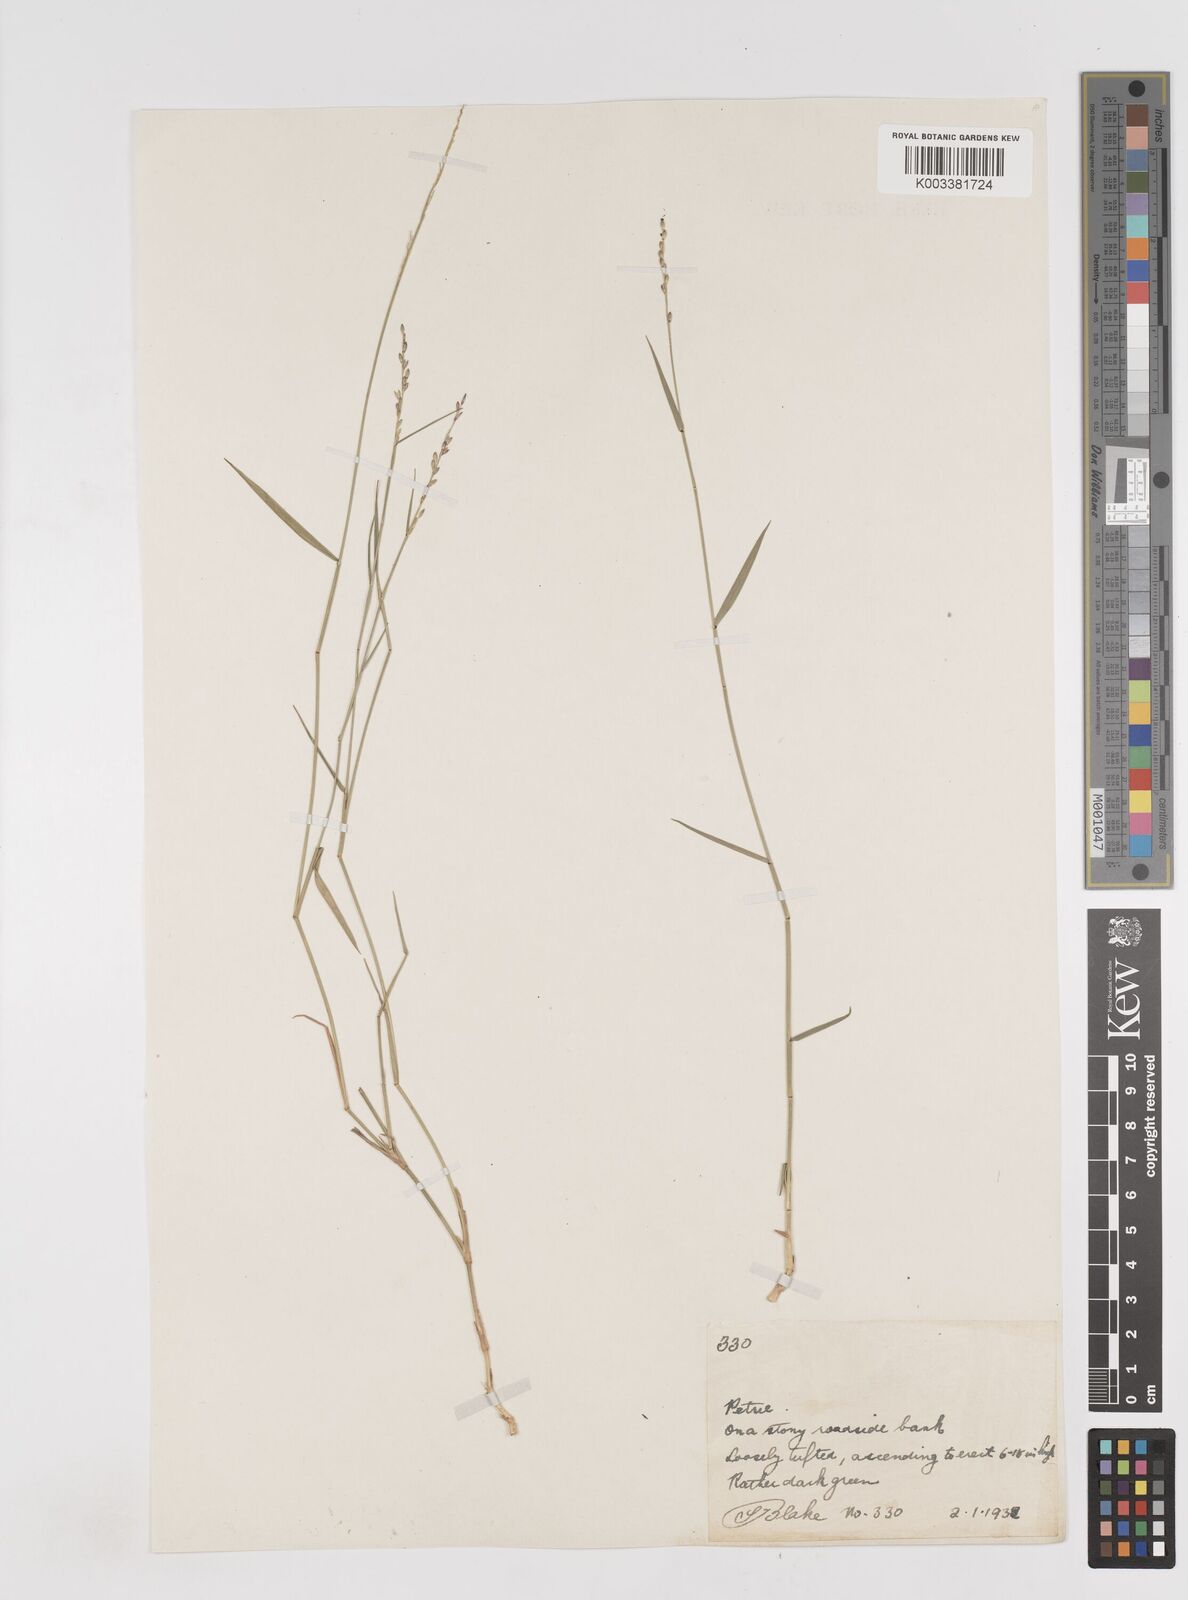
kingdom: Plantae
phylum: Tracheophyta
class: Liliopsida
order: Poales
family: Poaceae
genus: Entolasia
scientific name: Entolasia stricta
